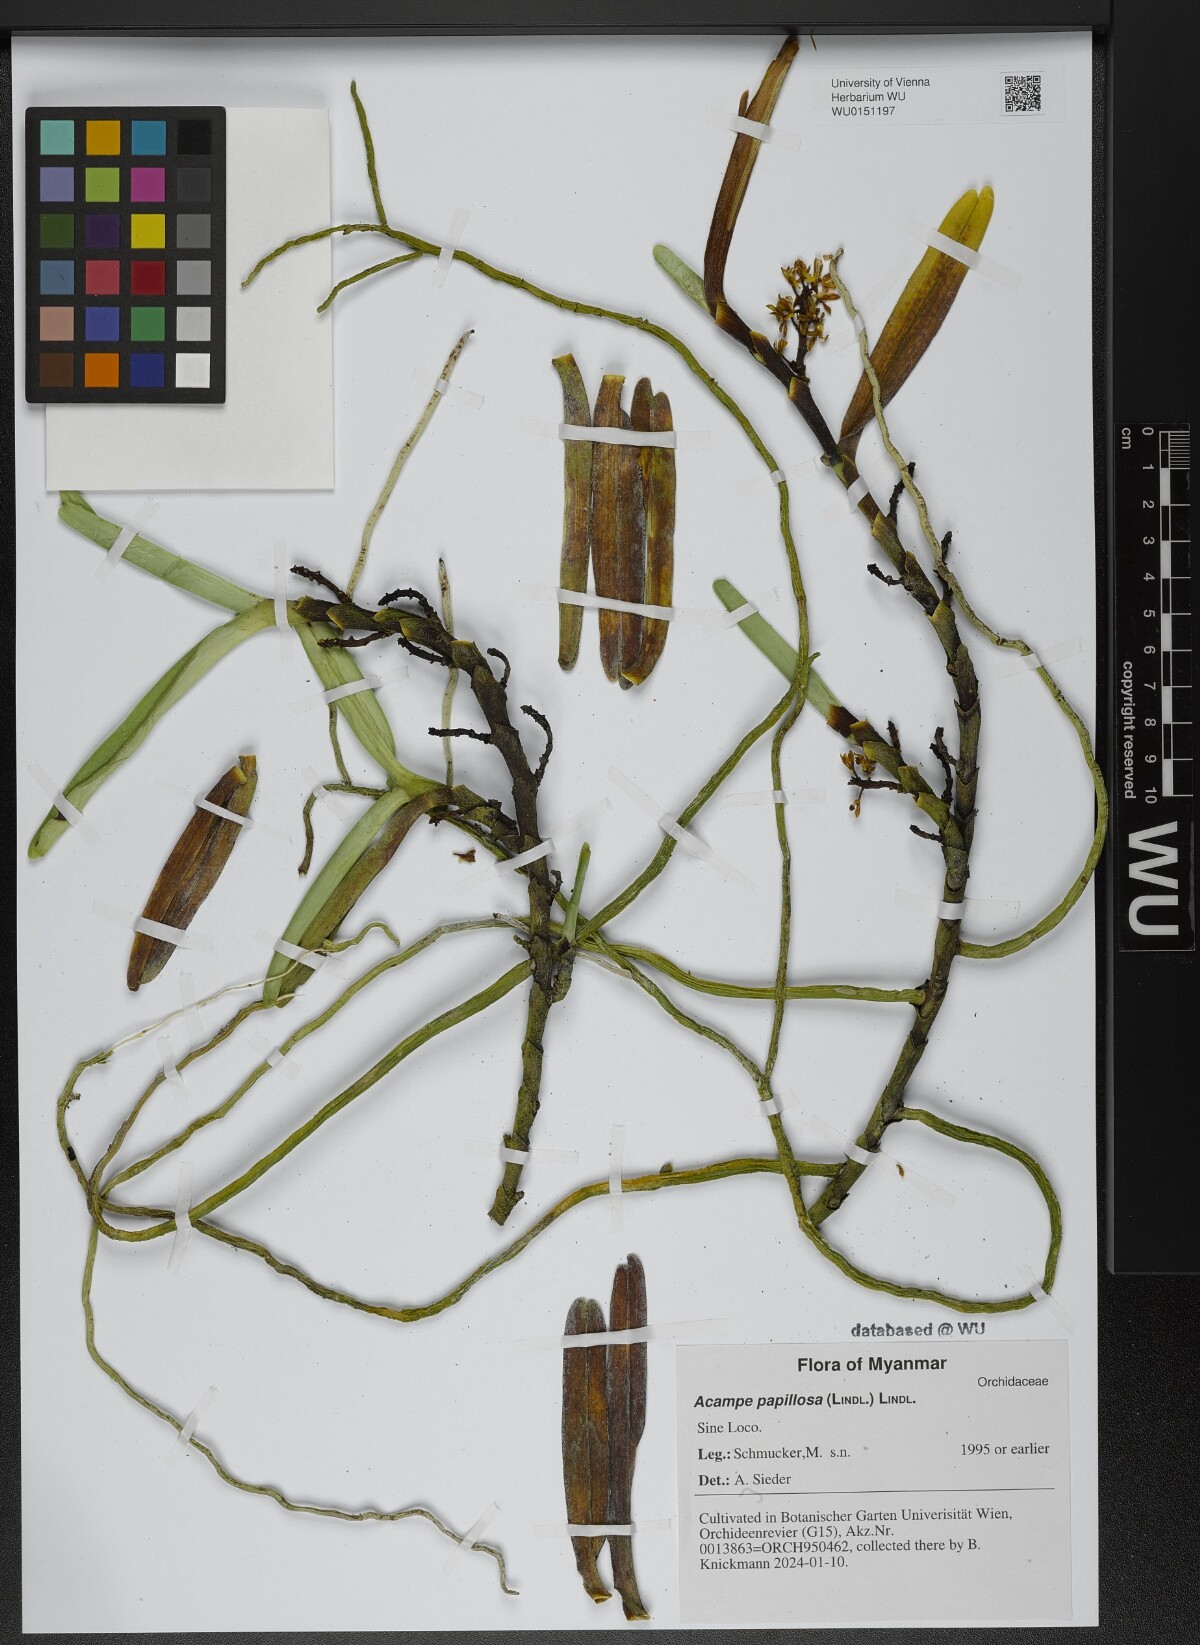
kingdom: Plantae
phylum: Tracheophyta
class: Liliopsida
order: Asparagales
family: Orchidaceae
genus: Acampe
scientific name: Acampe praemorsa
